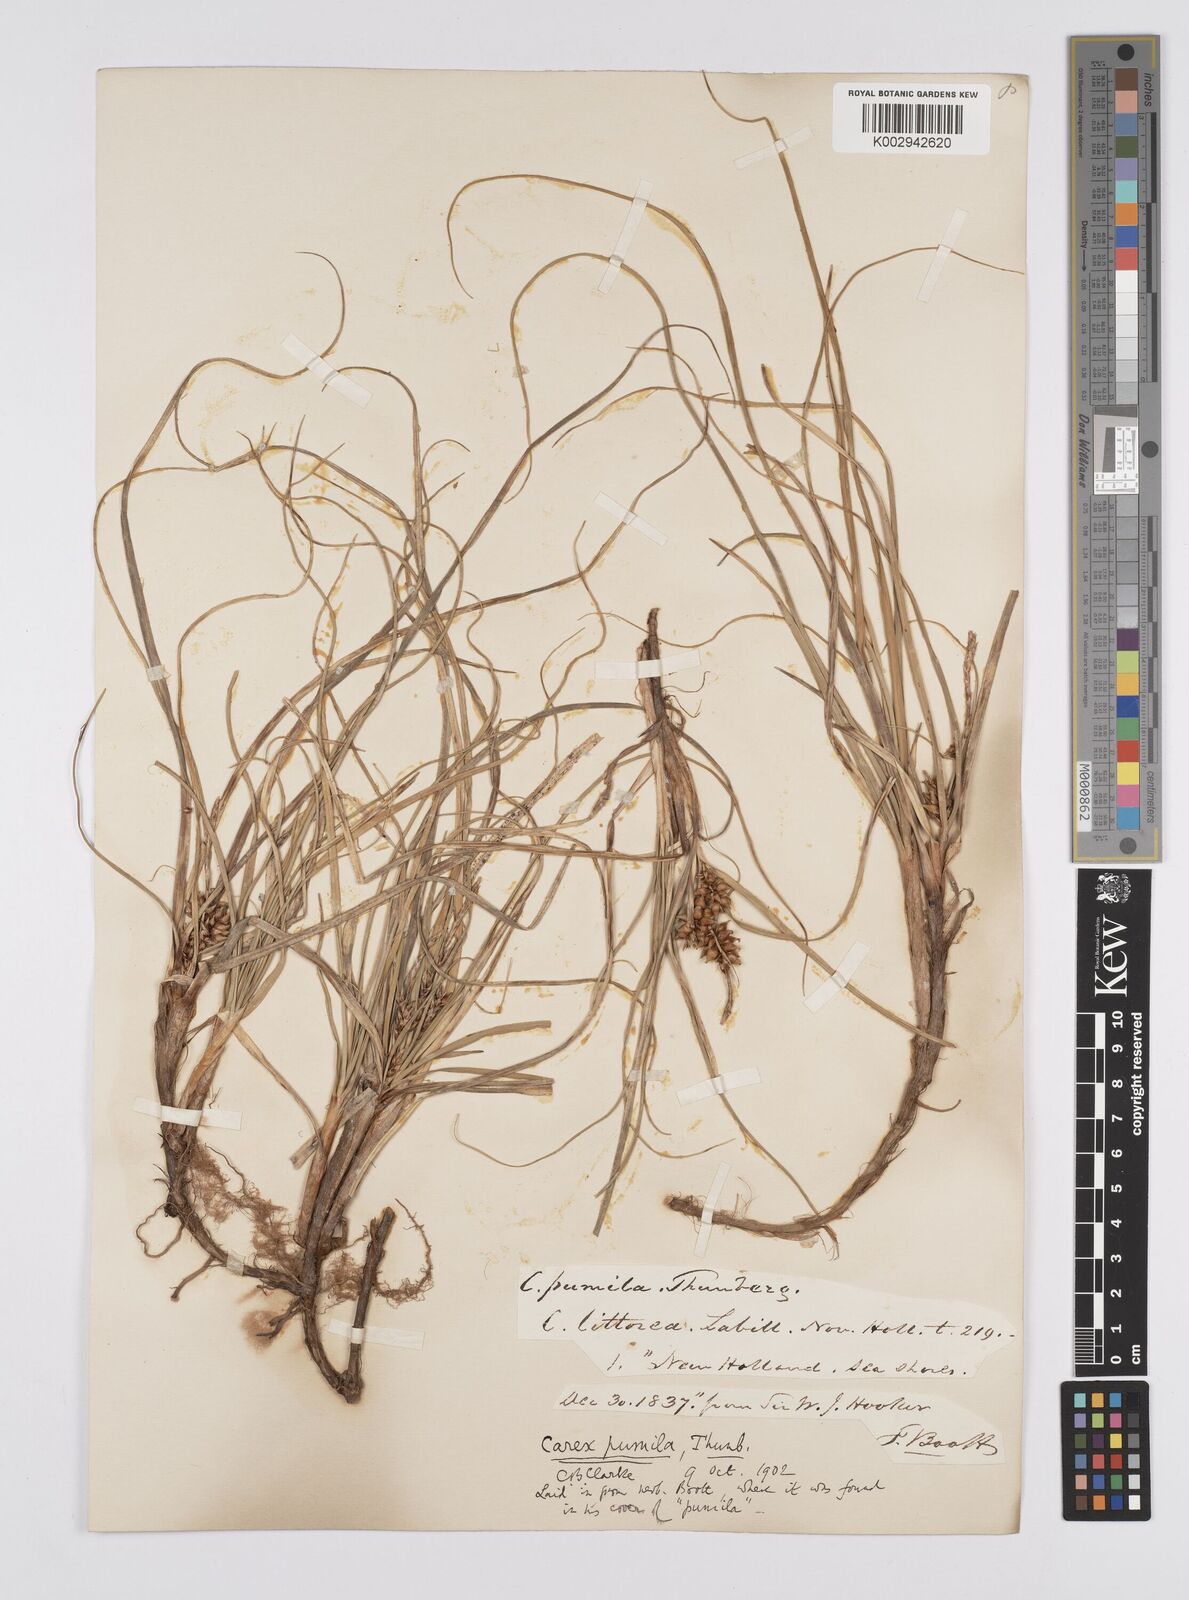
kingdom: Plantae
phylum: Tracheophyta
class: Liliopsida
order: Poales
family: Cyperaceae
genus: Carex
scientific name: Carex pumila
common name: Dwarf sedge
